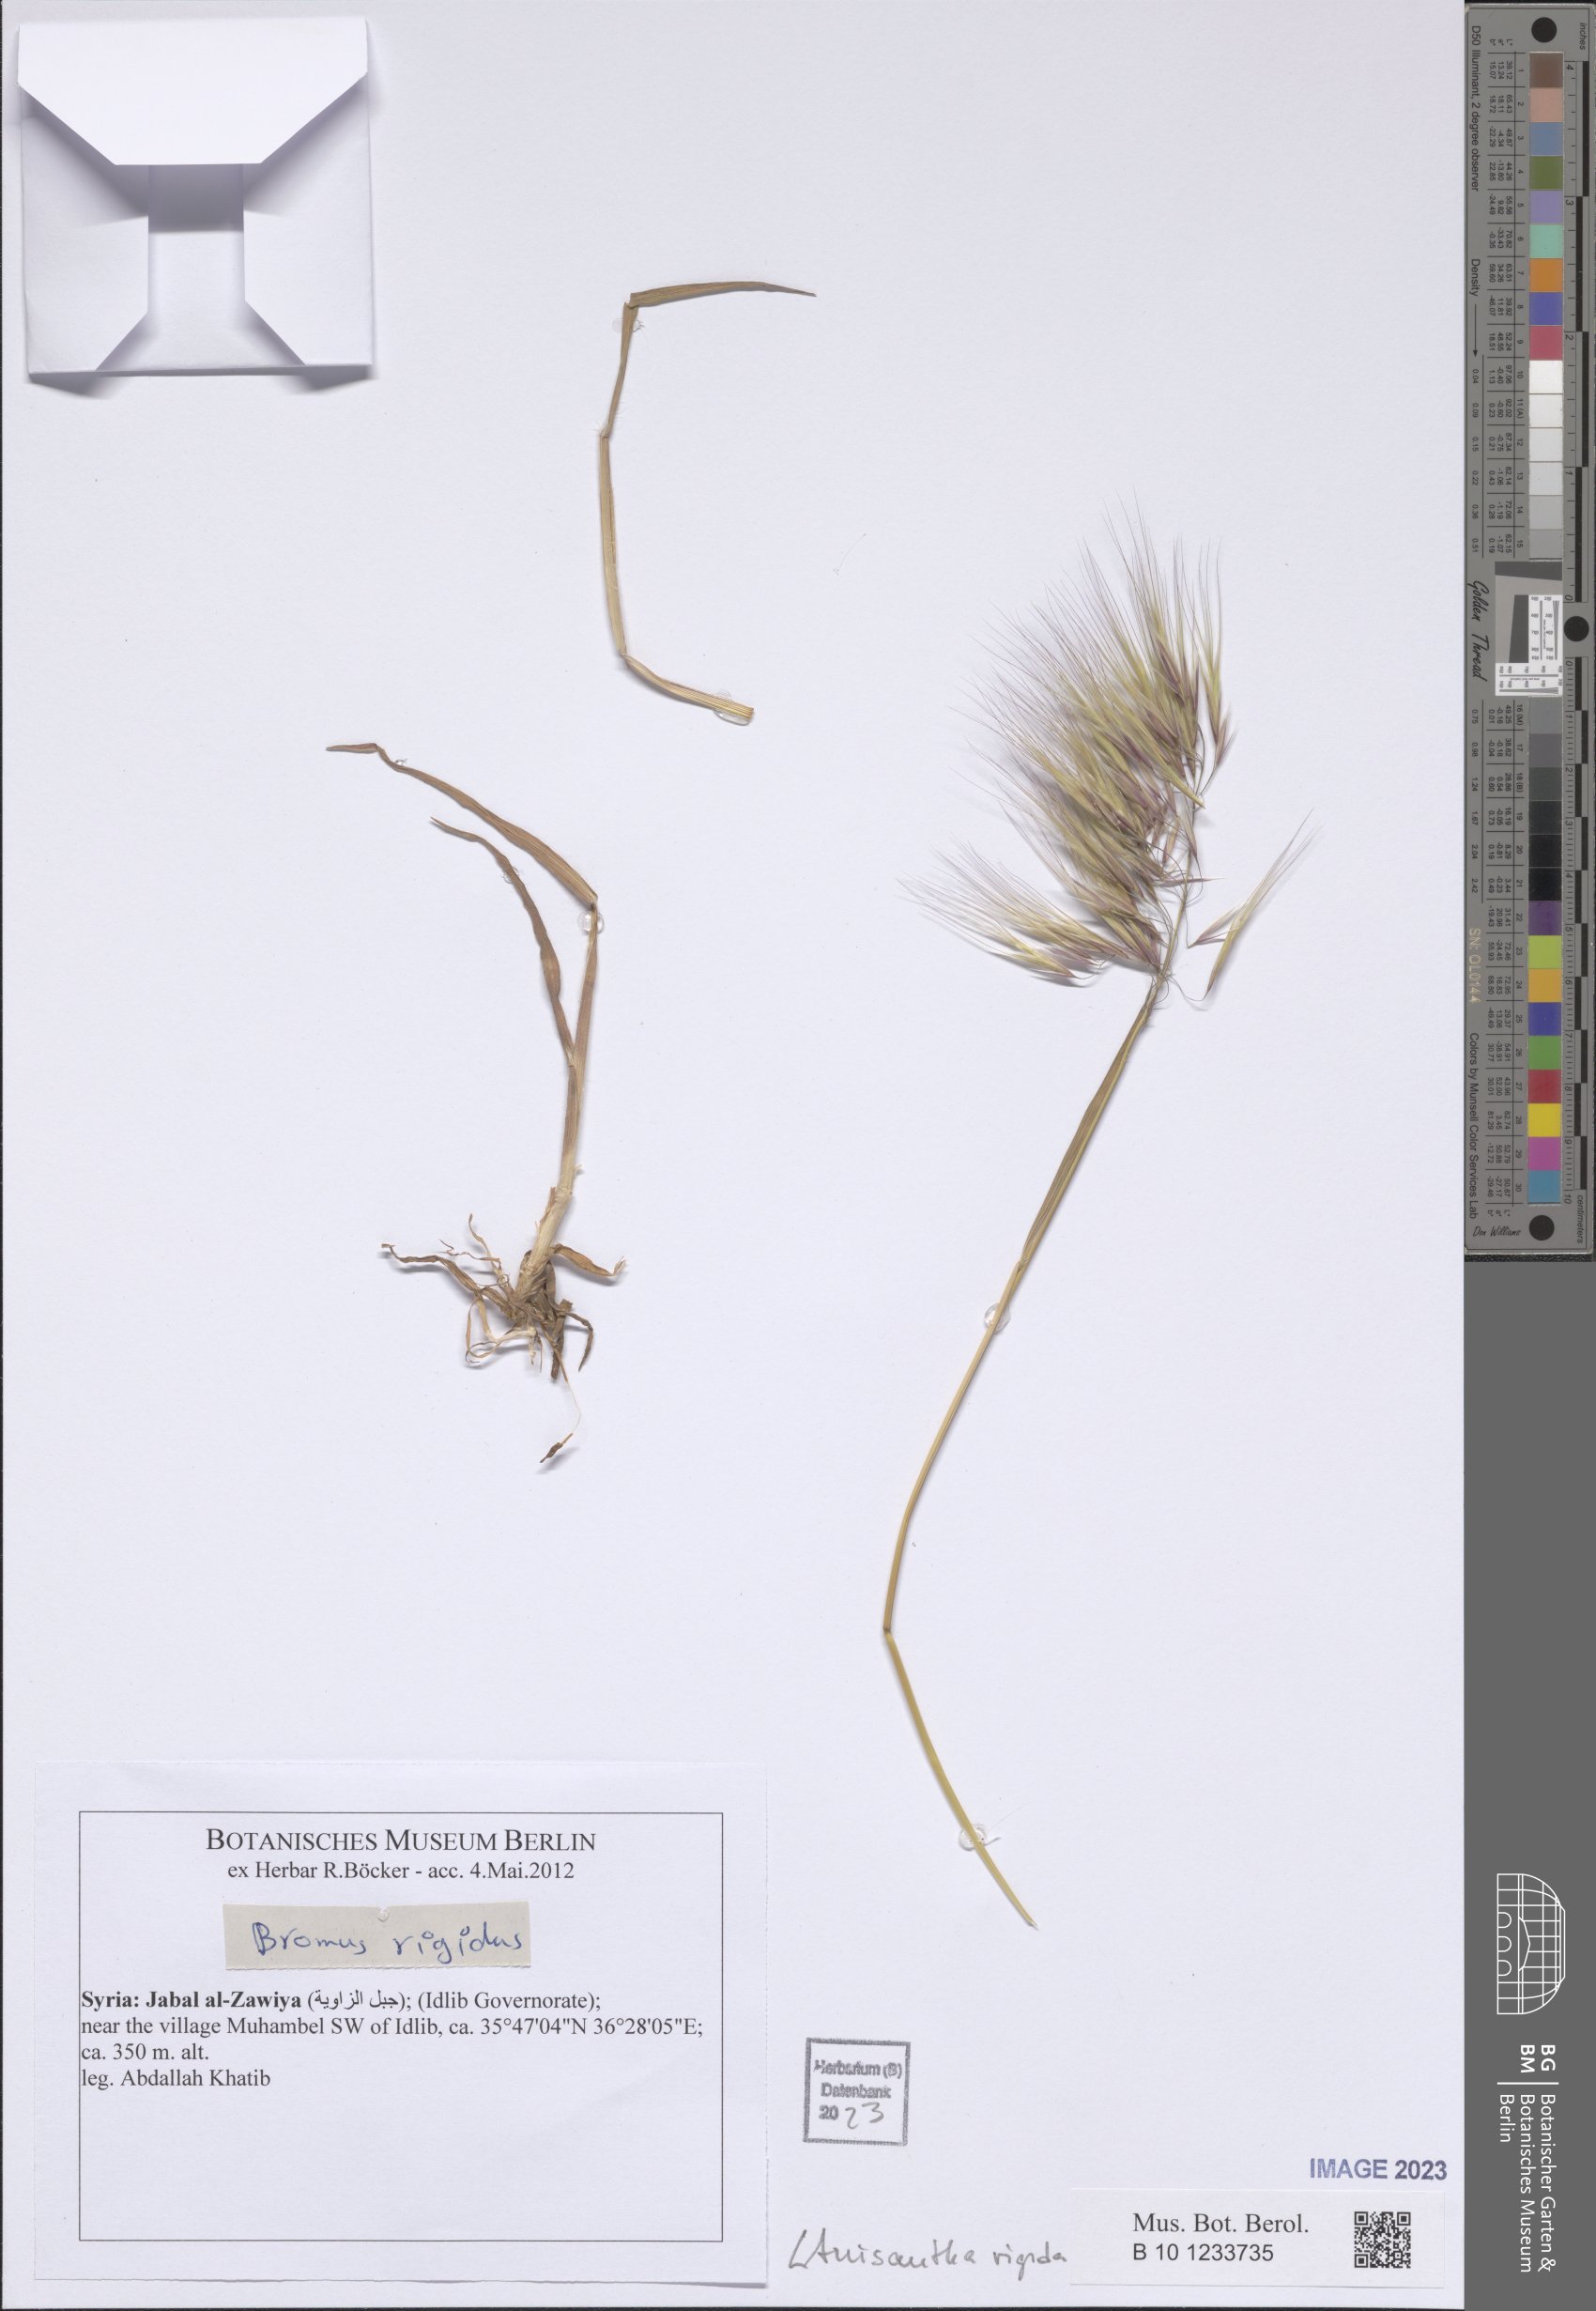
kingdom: Plantae
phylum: Tracheophyta
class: Liliopsida
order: Poales
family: Poaceae
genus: Bromus
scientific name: Bromus rigidus
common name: Ripgut brome
